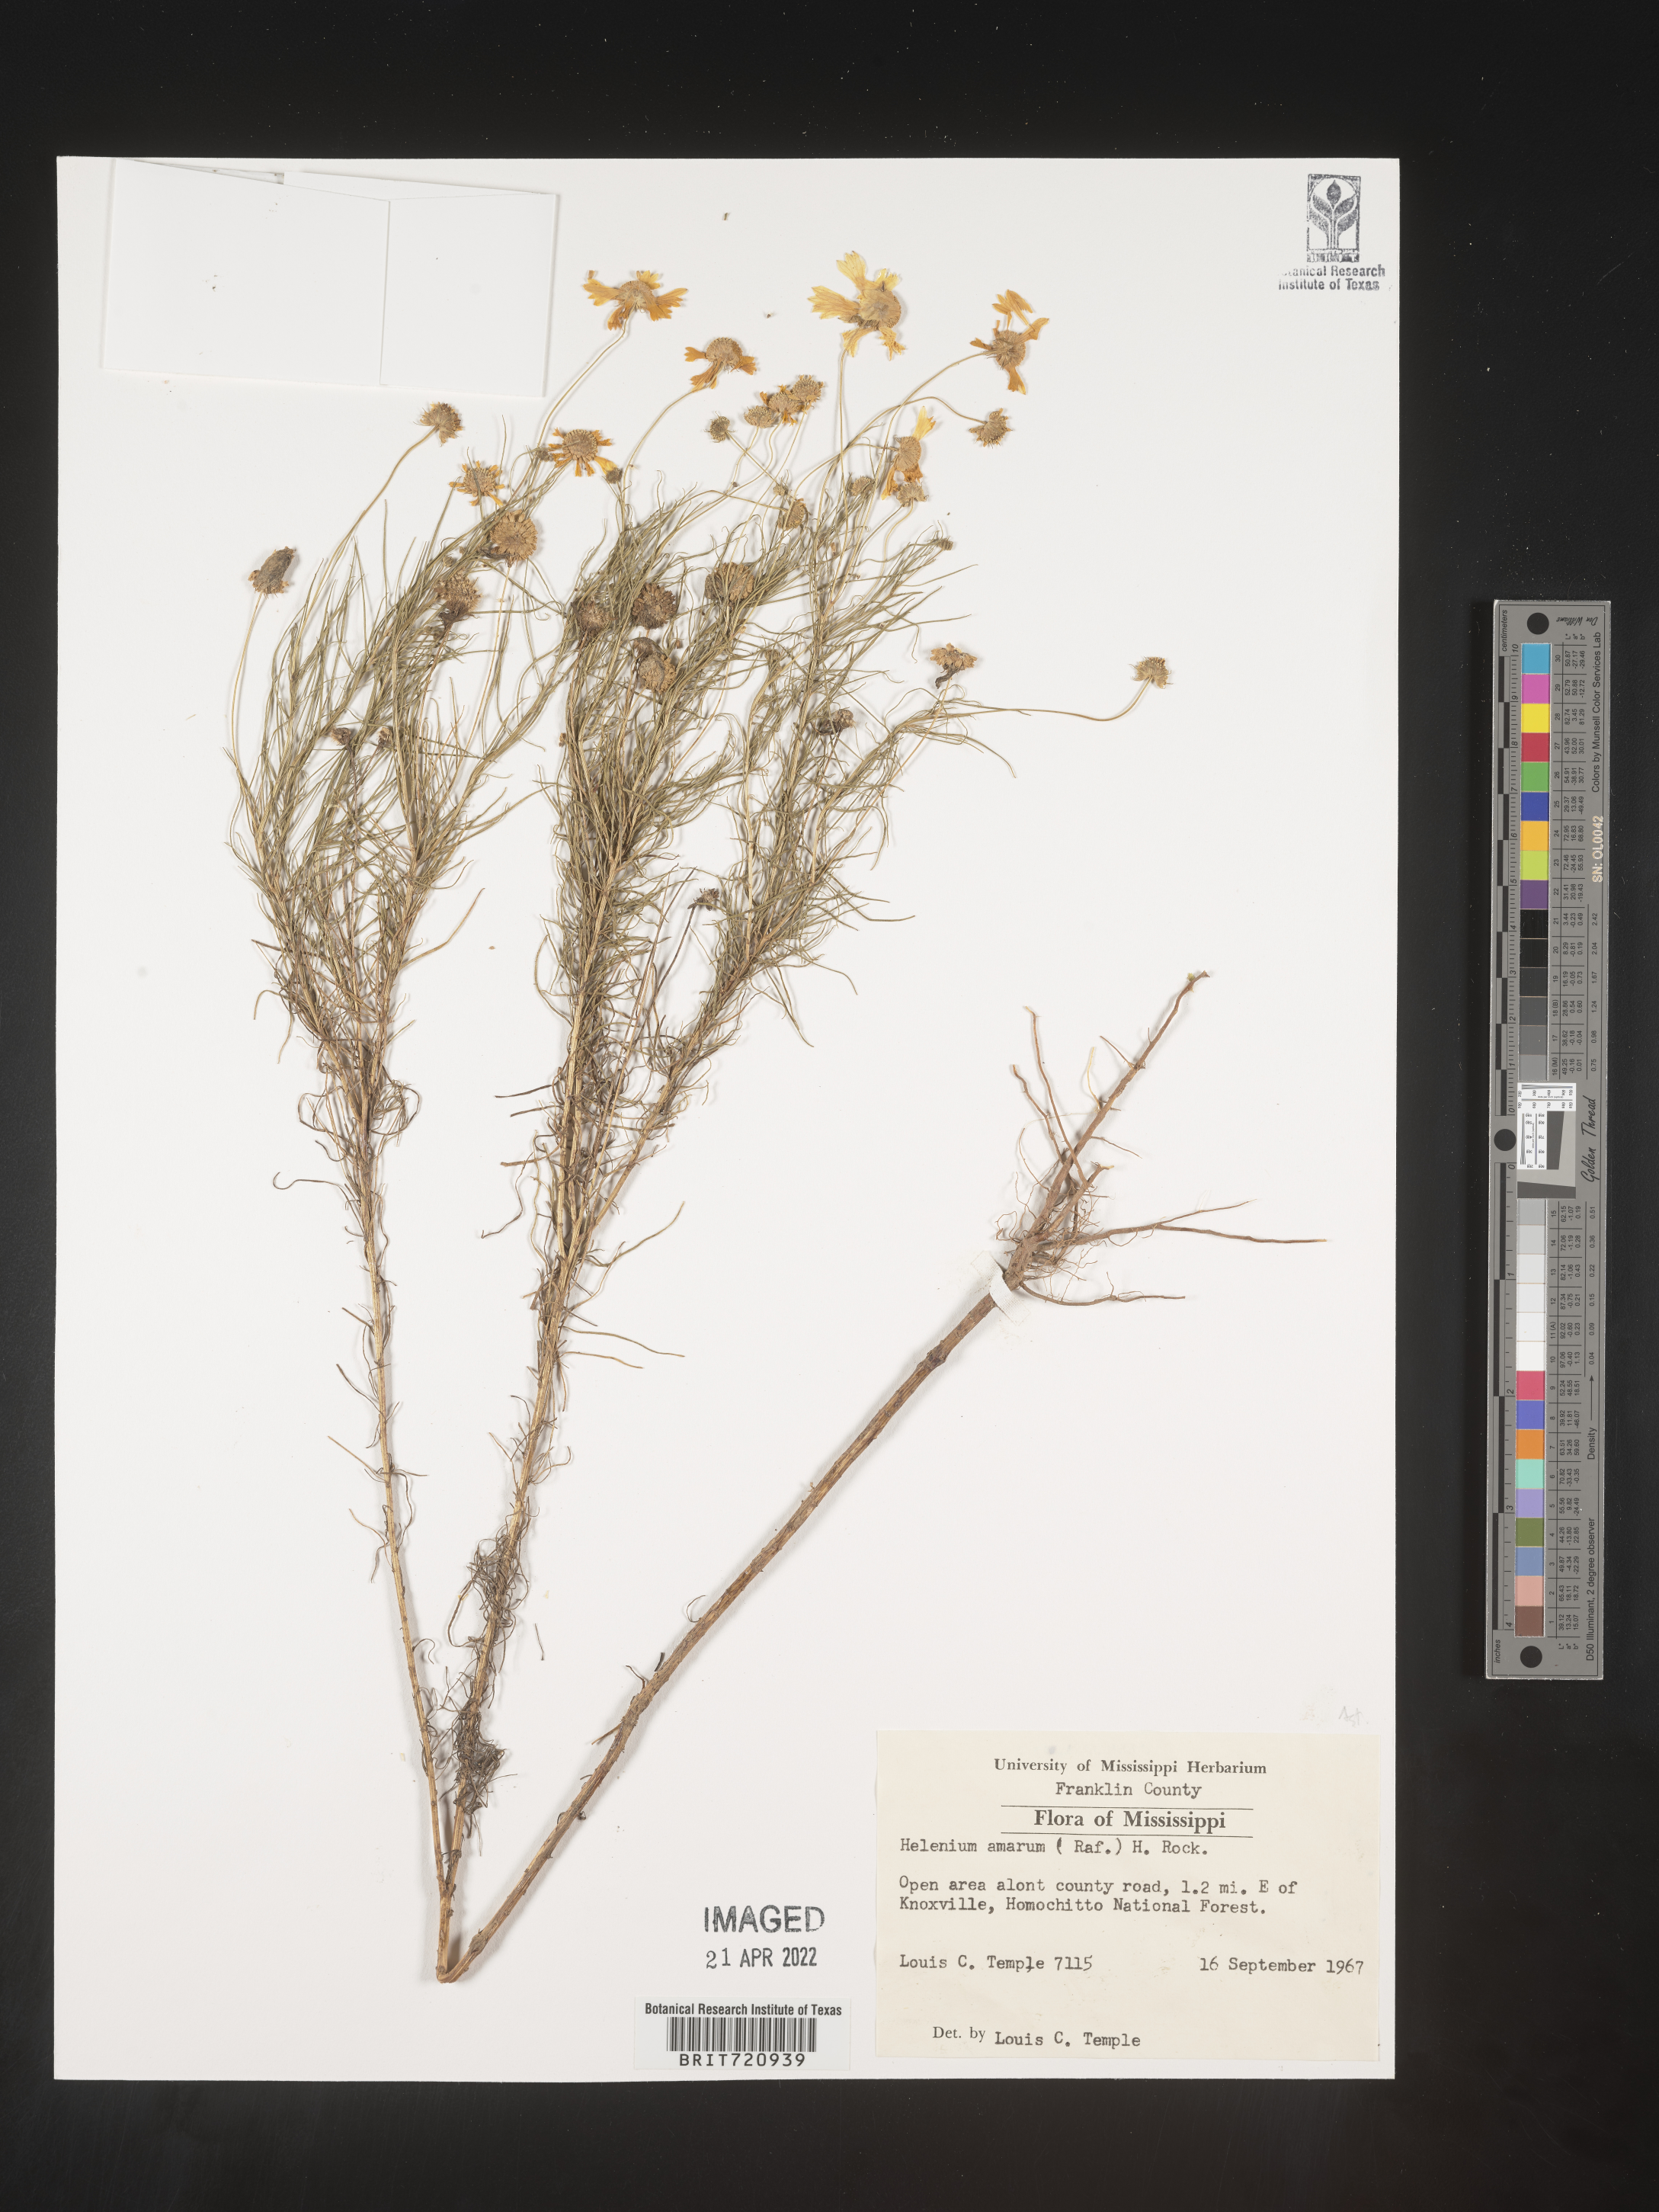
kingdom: Plantae
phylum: Tracheophyta
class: Magnoliopsida
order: Asterales
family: Asteraceae
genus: Helenium
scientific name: Helenium amarum
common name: Bitter sneezeweed
